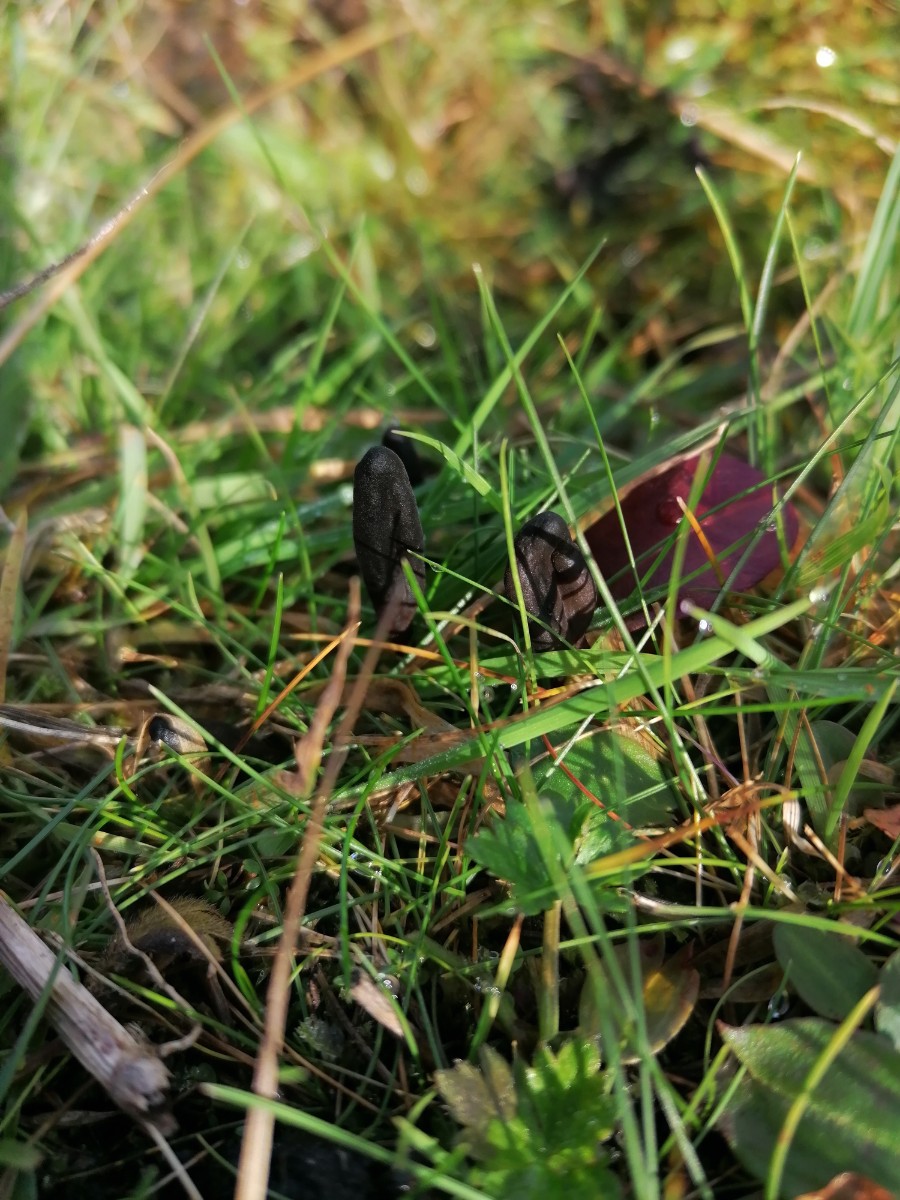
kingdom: Fungi
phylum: Ascomycota
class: Geoglossomycetes
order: Geoglossales
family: Geoglossaceae
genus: Geoglossum
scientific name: Geoglossum
